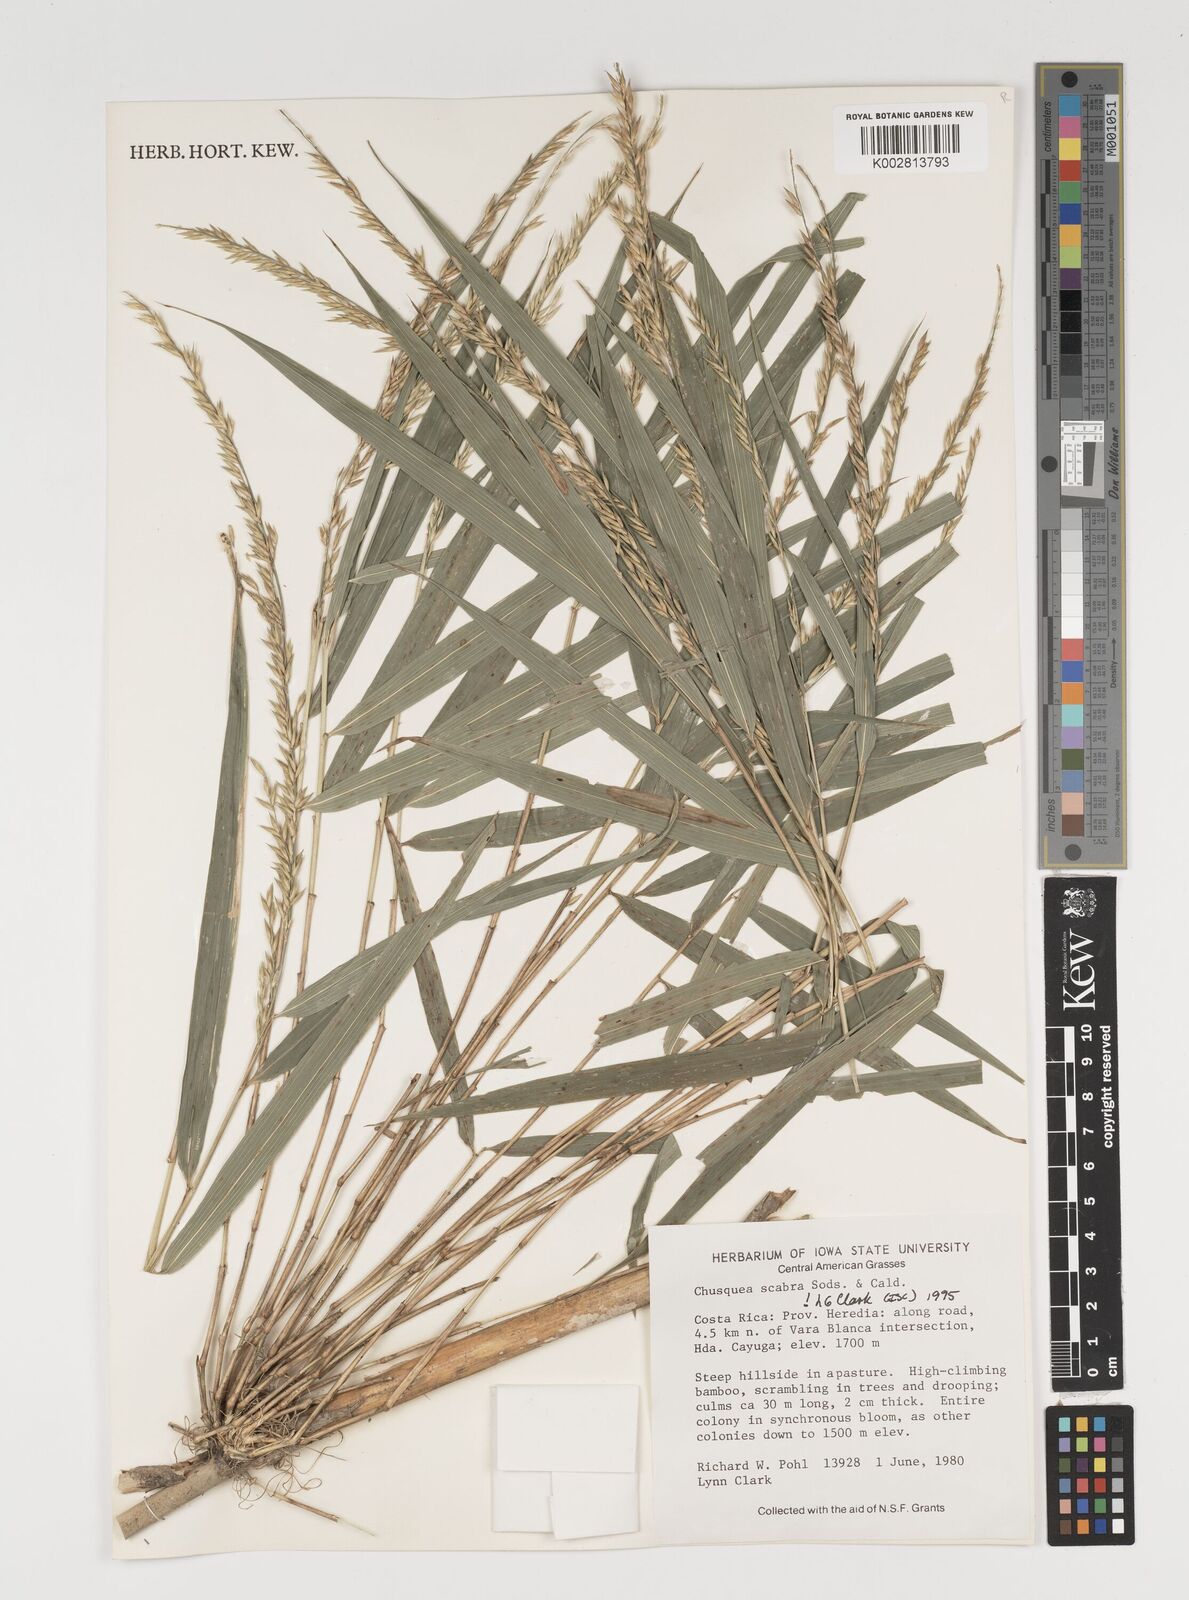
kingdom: Plantae
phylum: Tracheophyta
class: Liliopsida
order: Poales
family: Poaceae
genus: Chusquea
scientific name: Chusquea scabra
